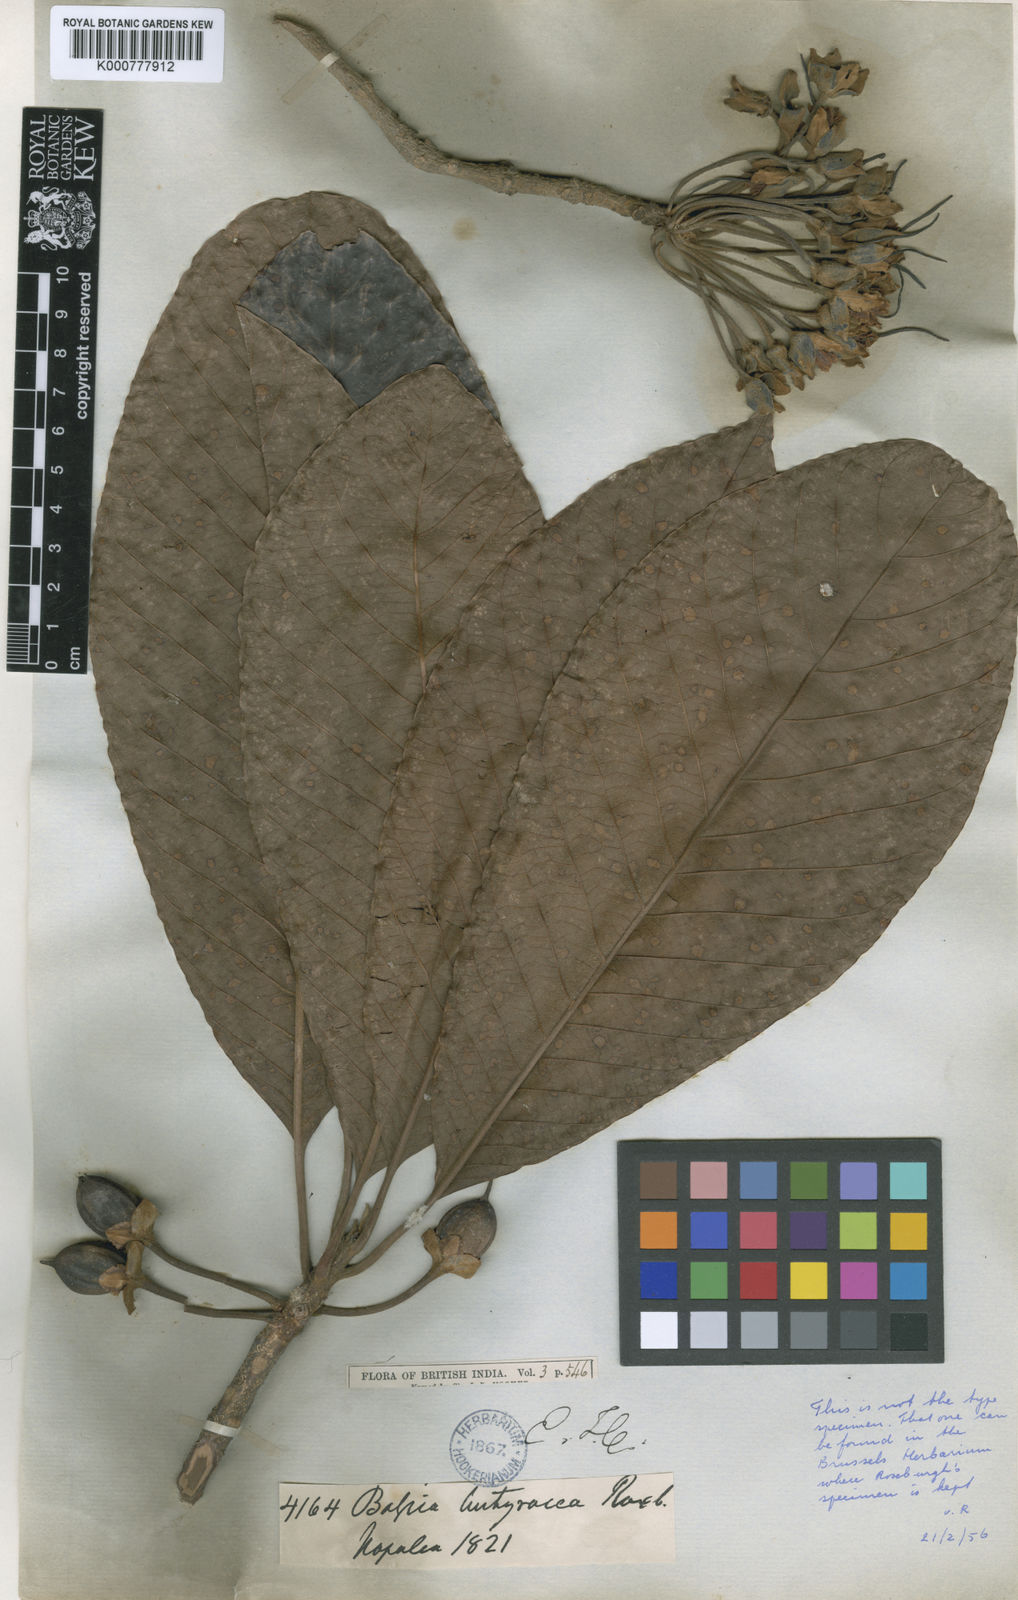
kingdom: Plantae
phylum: Tracheophyta
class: Magnoliopsida
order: Ericales
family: Sapotaceae
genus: Diploknema
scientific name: Diploknema butyracea
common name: Indian-buttertree
